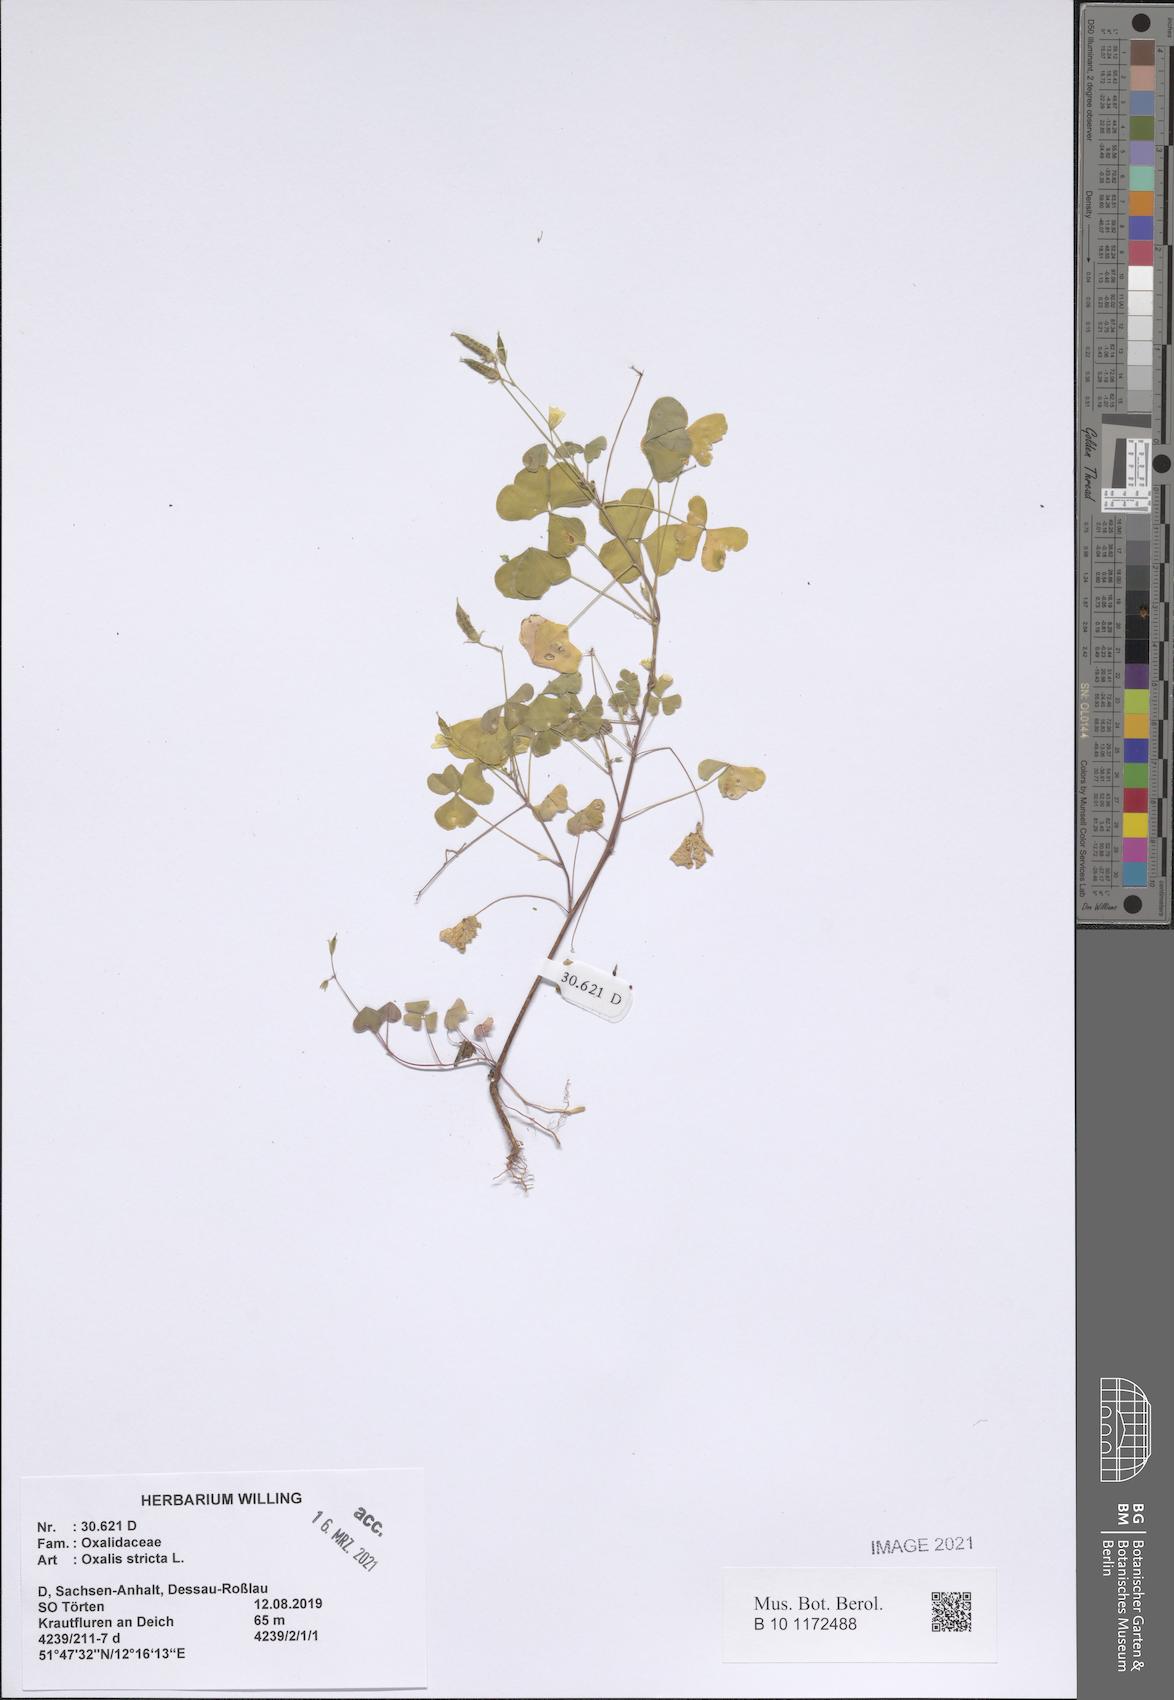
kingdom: Plantae
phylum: Tracheophyta
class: Magnoliopsida
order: Oxalidales
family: Oxalidaceae
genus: Oxalis
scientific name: Oxalis stricta
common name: Upright yellow-sorrel
